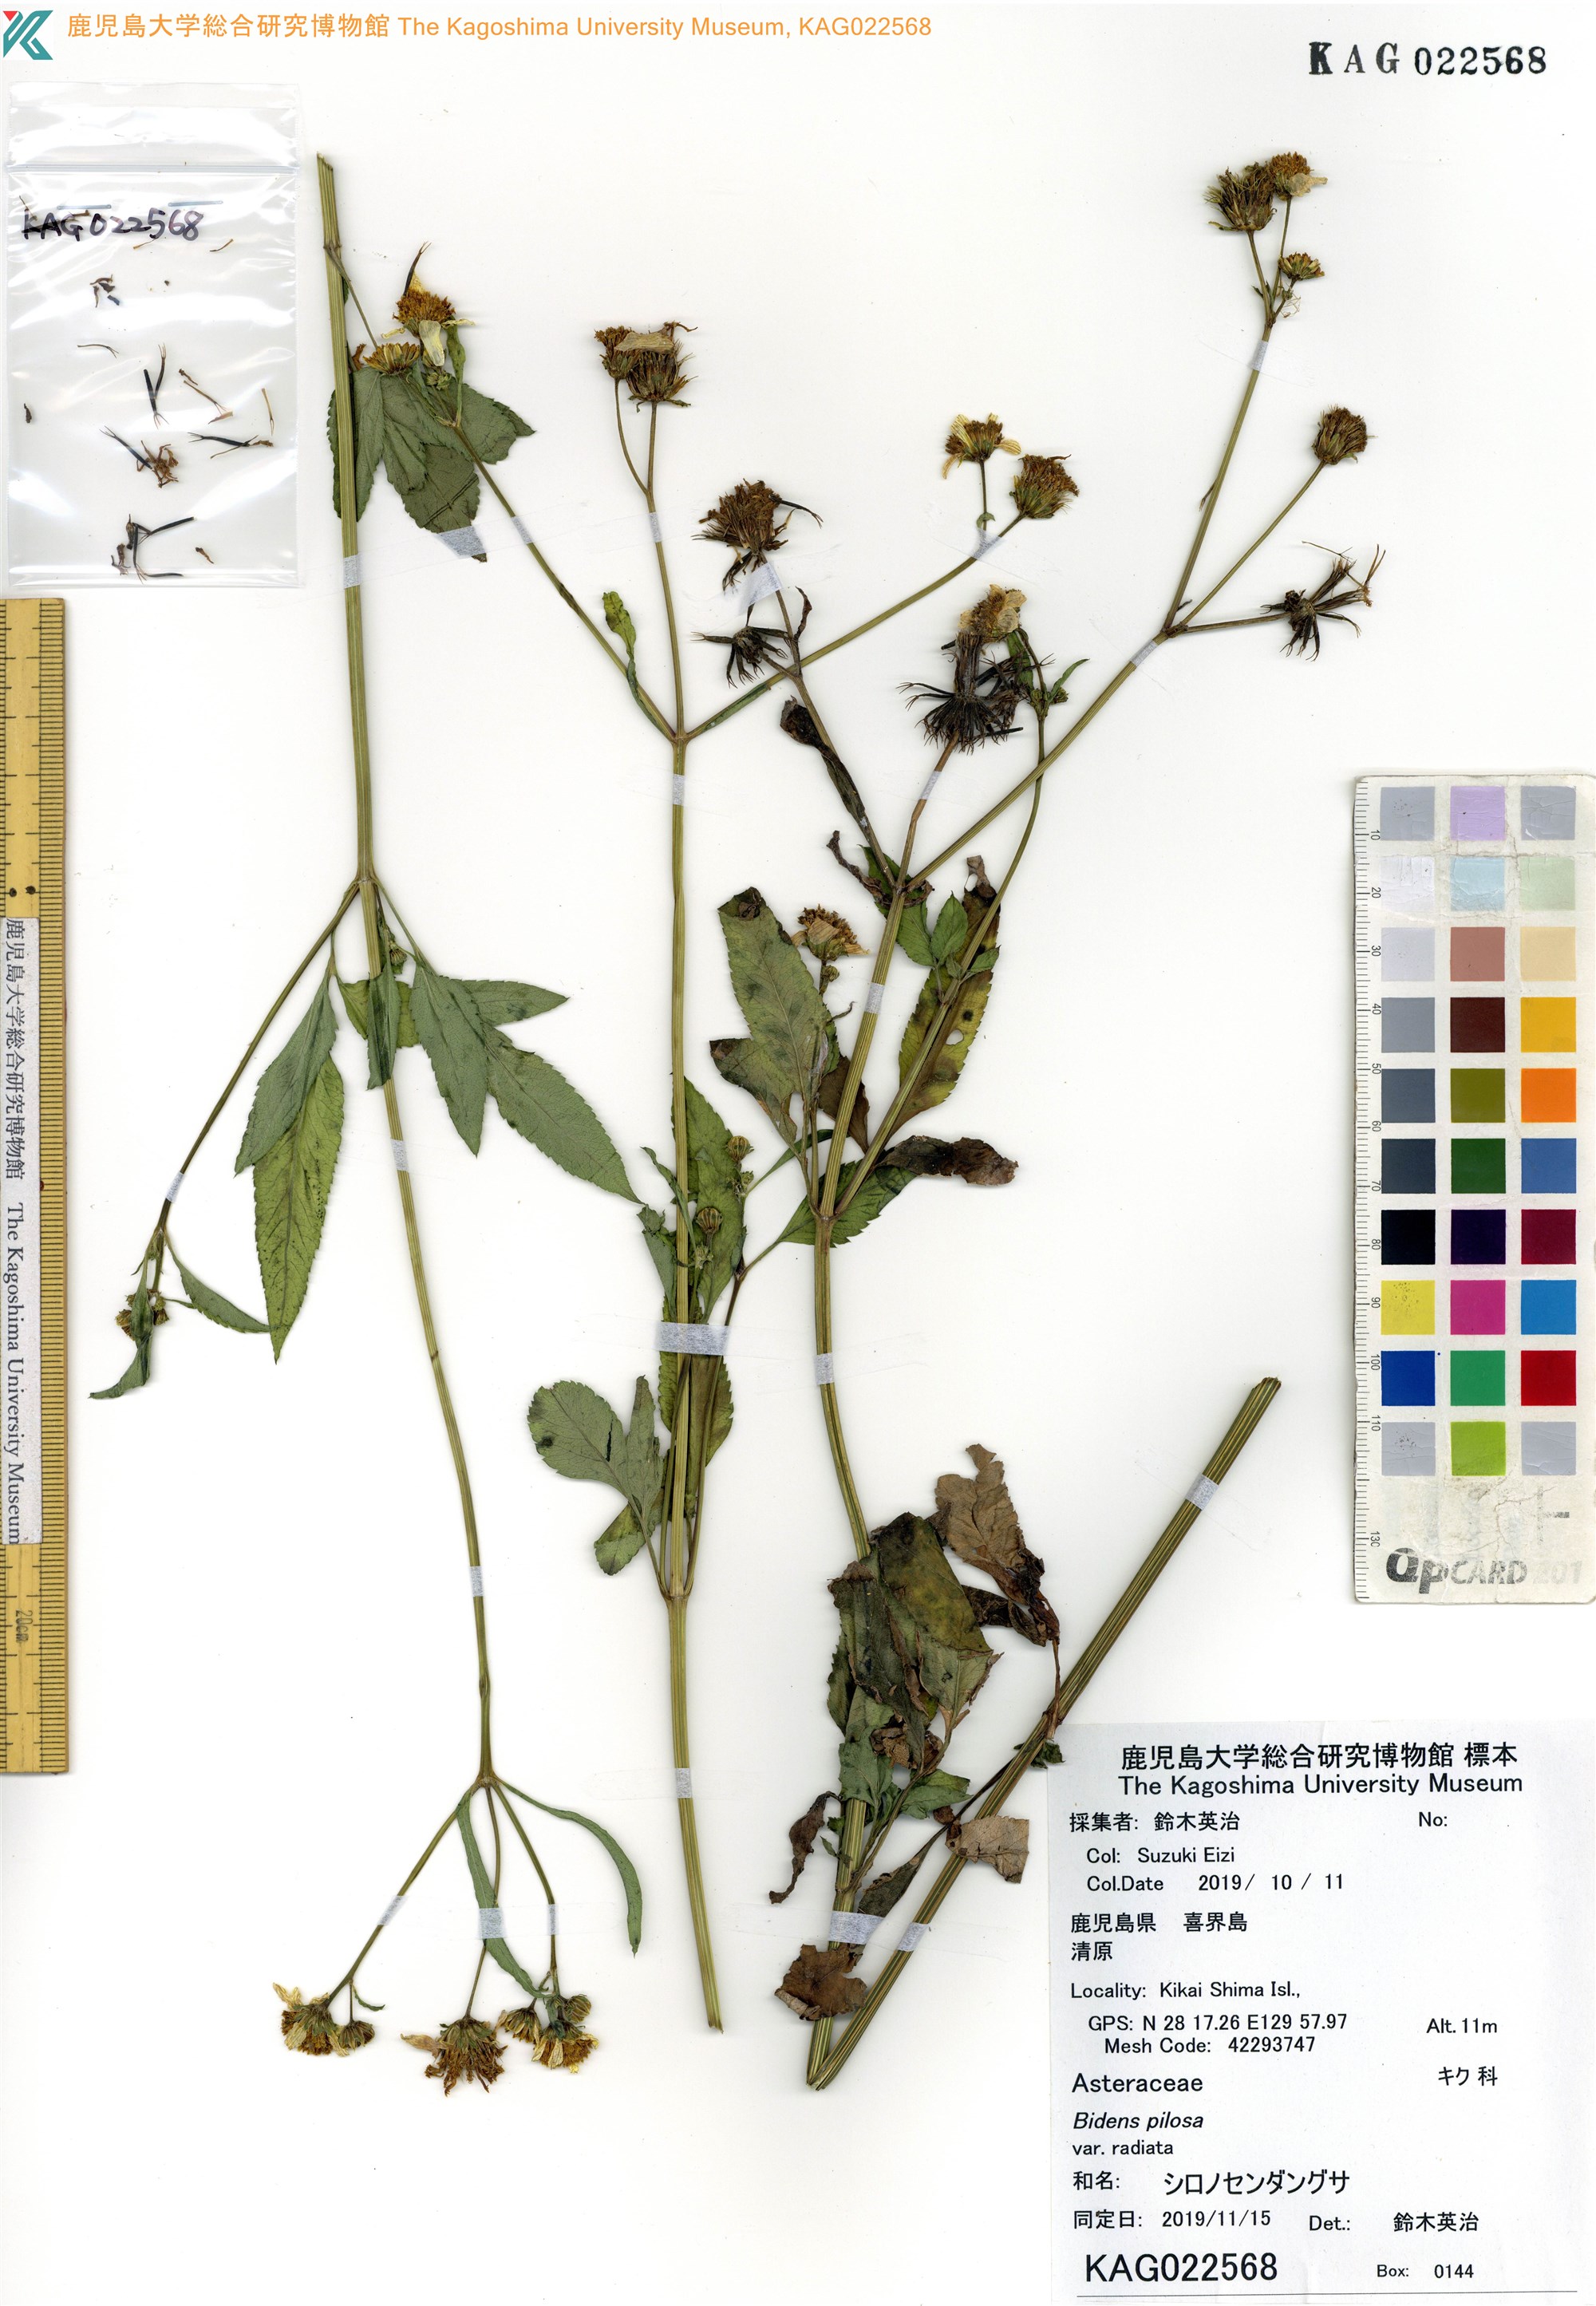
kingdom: Plantae
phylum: Tracheophyta
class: Magnoliopsida
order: Asterales
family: Asteraceae
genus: Bidens
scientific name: Bidens pilosa
